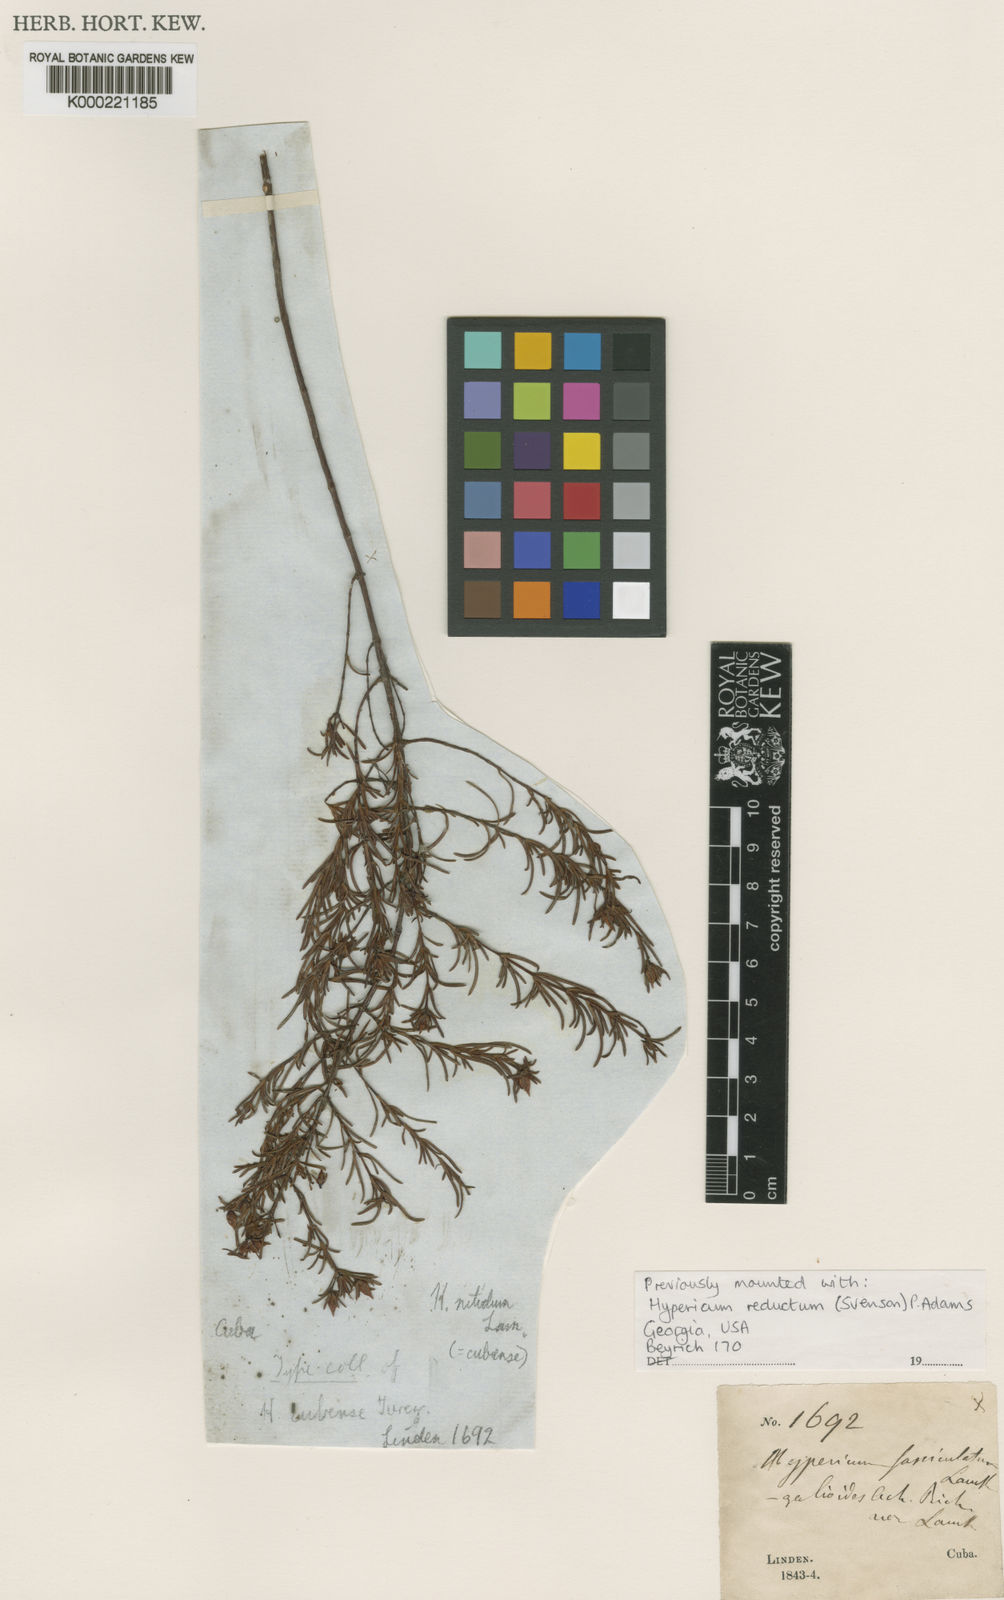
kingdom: Plantae
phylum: Tracheophyta
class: Magnoliopsida
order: Malpighiales
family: Hypericaceae
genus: Hypericum
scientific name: Hypericum nitidum
